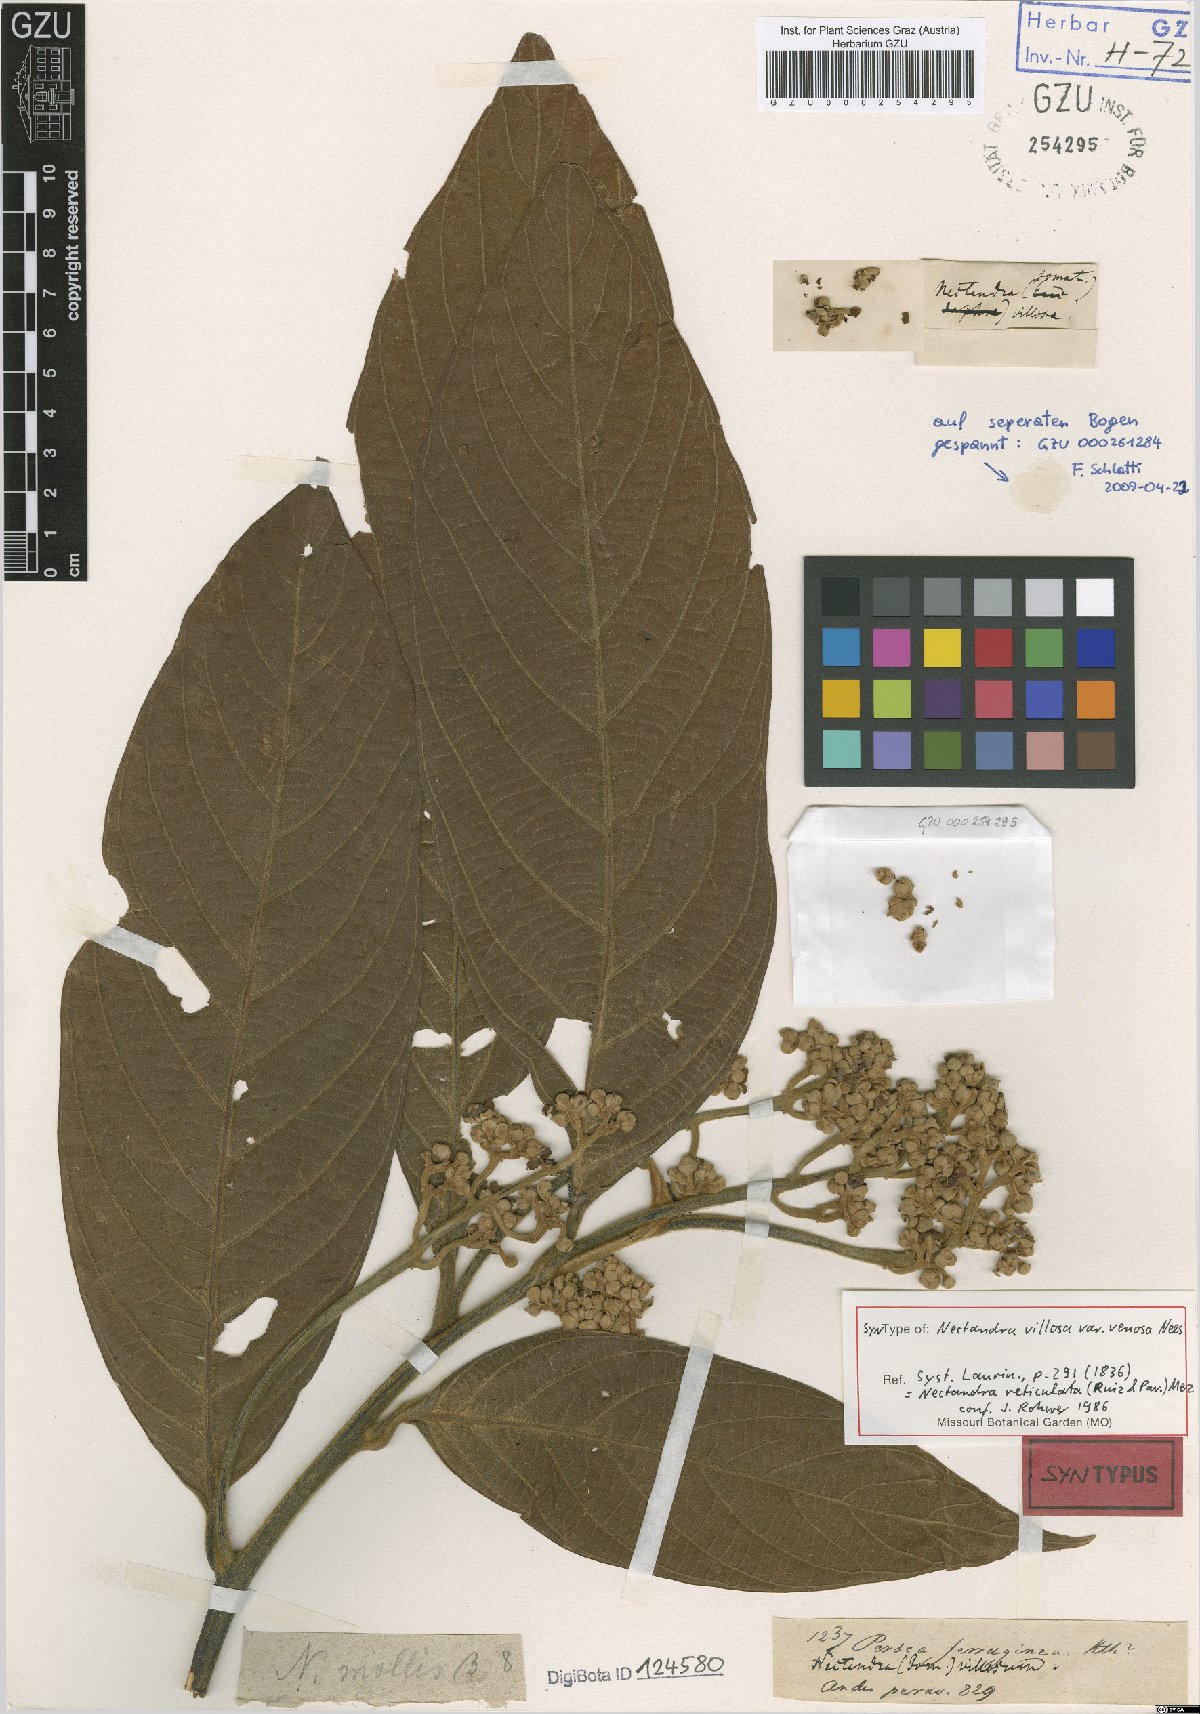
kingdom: Plantae
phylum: Tracheophyta
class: Magnoliopsida
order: Laurales
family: Lauraceae
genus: Nectandra
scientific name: Nectandra villosa
